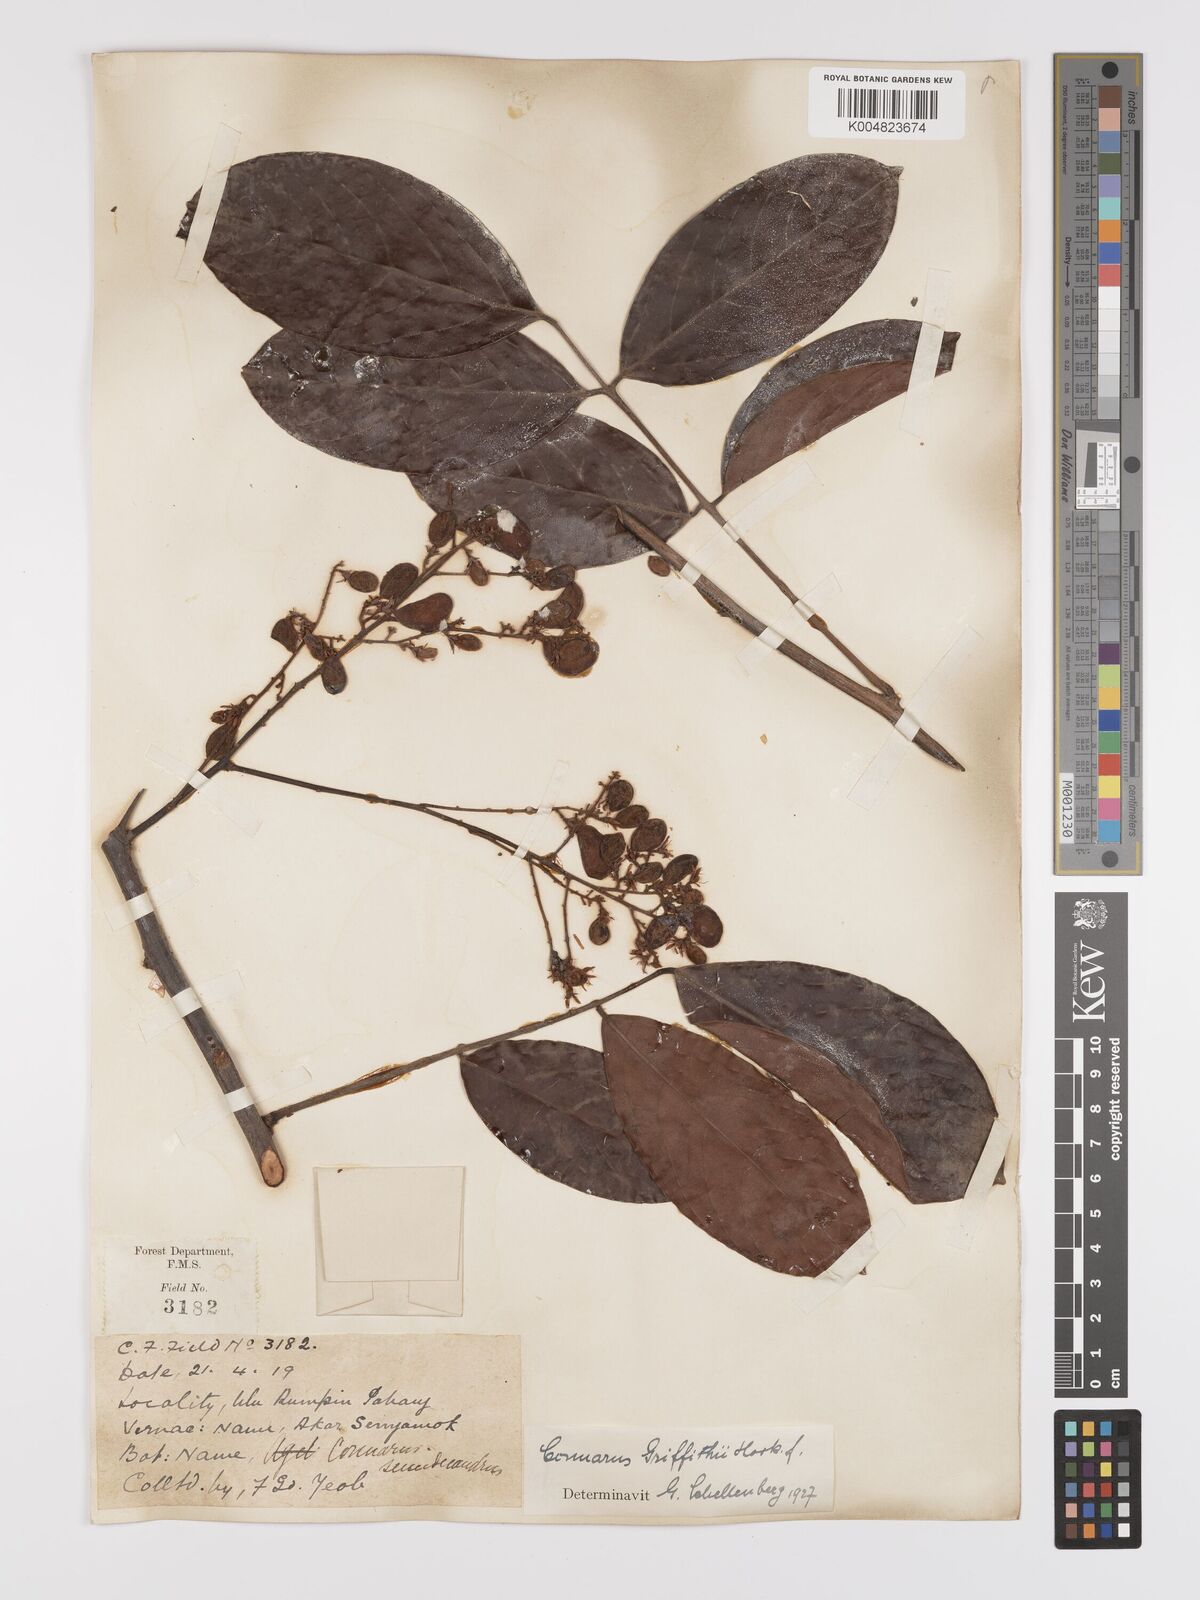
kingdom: Plantae
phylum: Tracheophyta
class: Magnoliopsida
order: Oxalidales
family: Connaraceae
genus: Connarus
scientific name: Connarus semidecandrus
